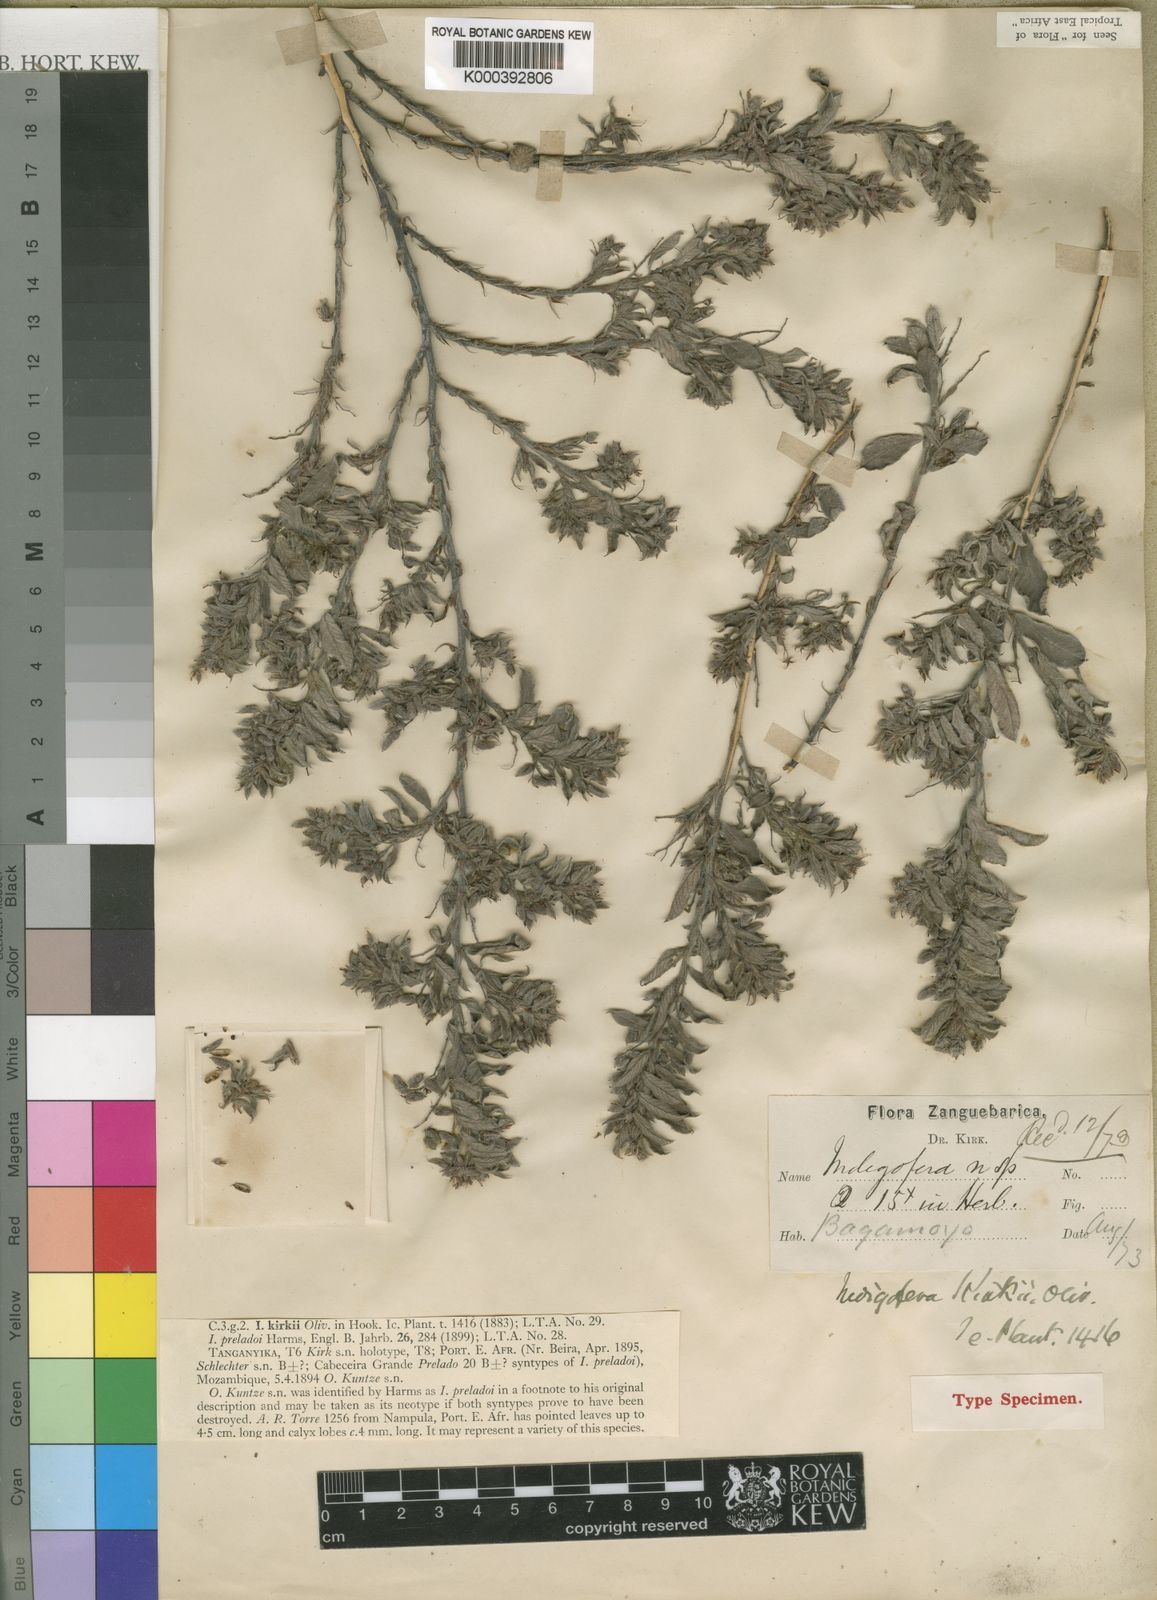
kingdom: Plantae
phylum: Tracheophyta
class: Magnoliopsida
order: Fabales
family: Fabaceae
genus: Indigofera
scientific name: Indigofera kirkii
